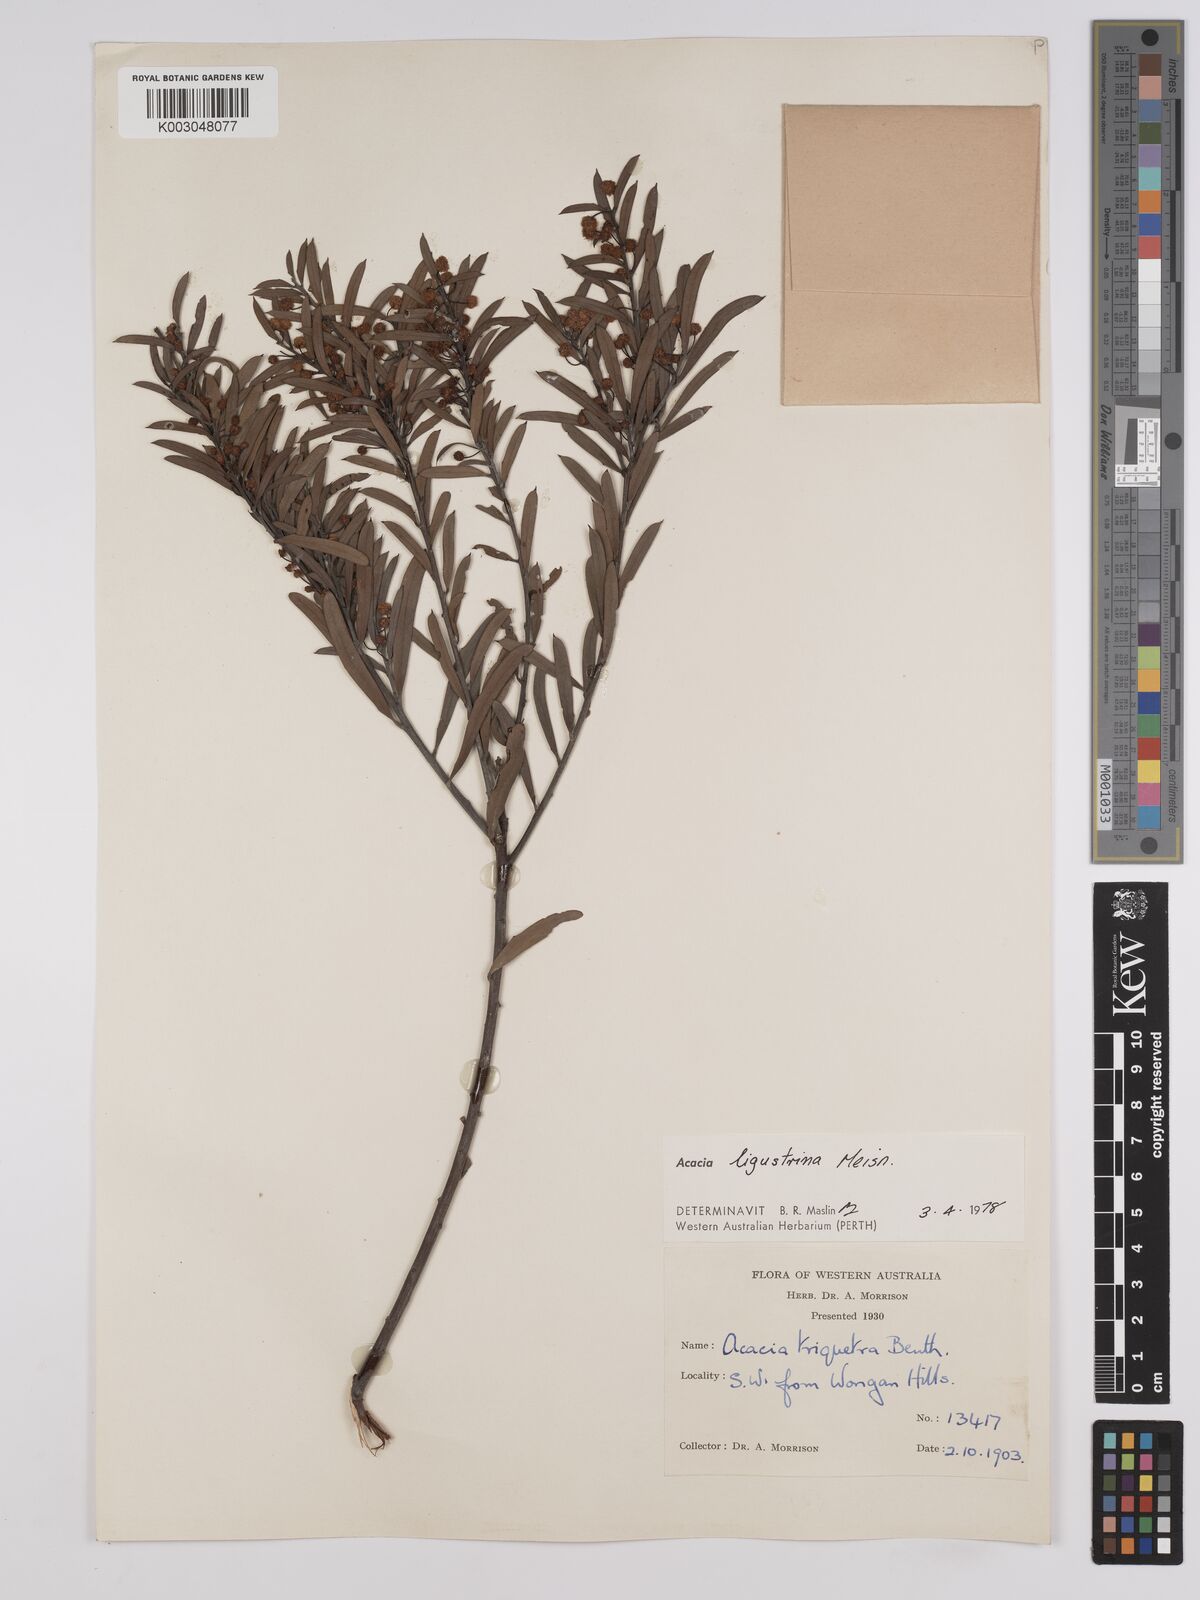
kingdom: Plantae
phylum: Tracheophyta
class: Magnoliopsida
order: Fabales
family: Fabaceae
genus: Acacia
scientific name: Acacia ligustrina
